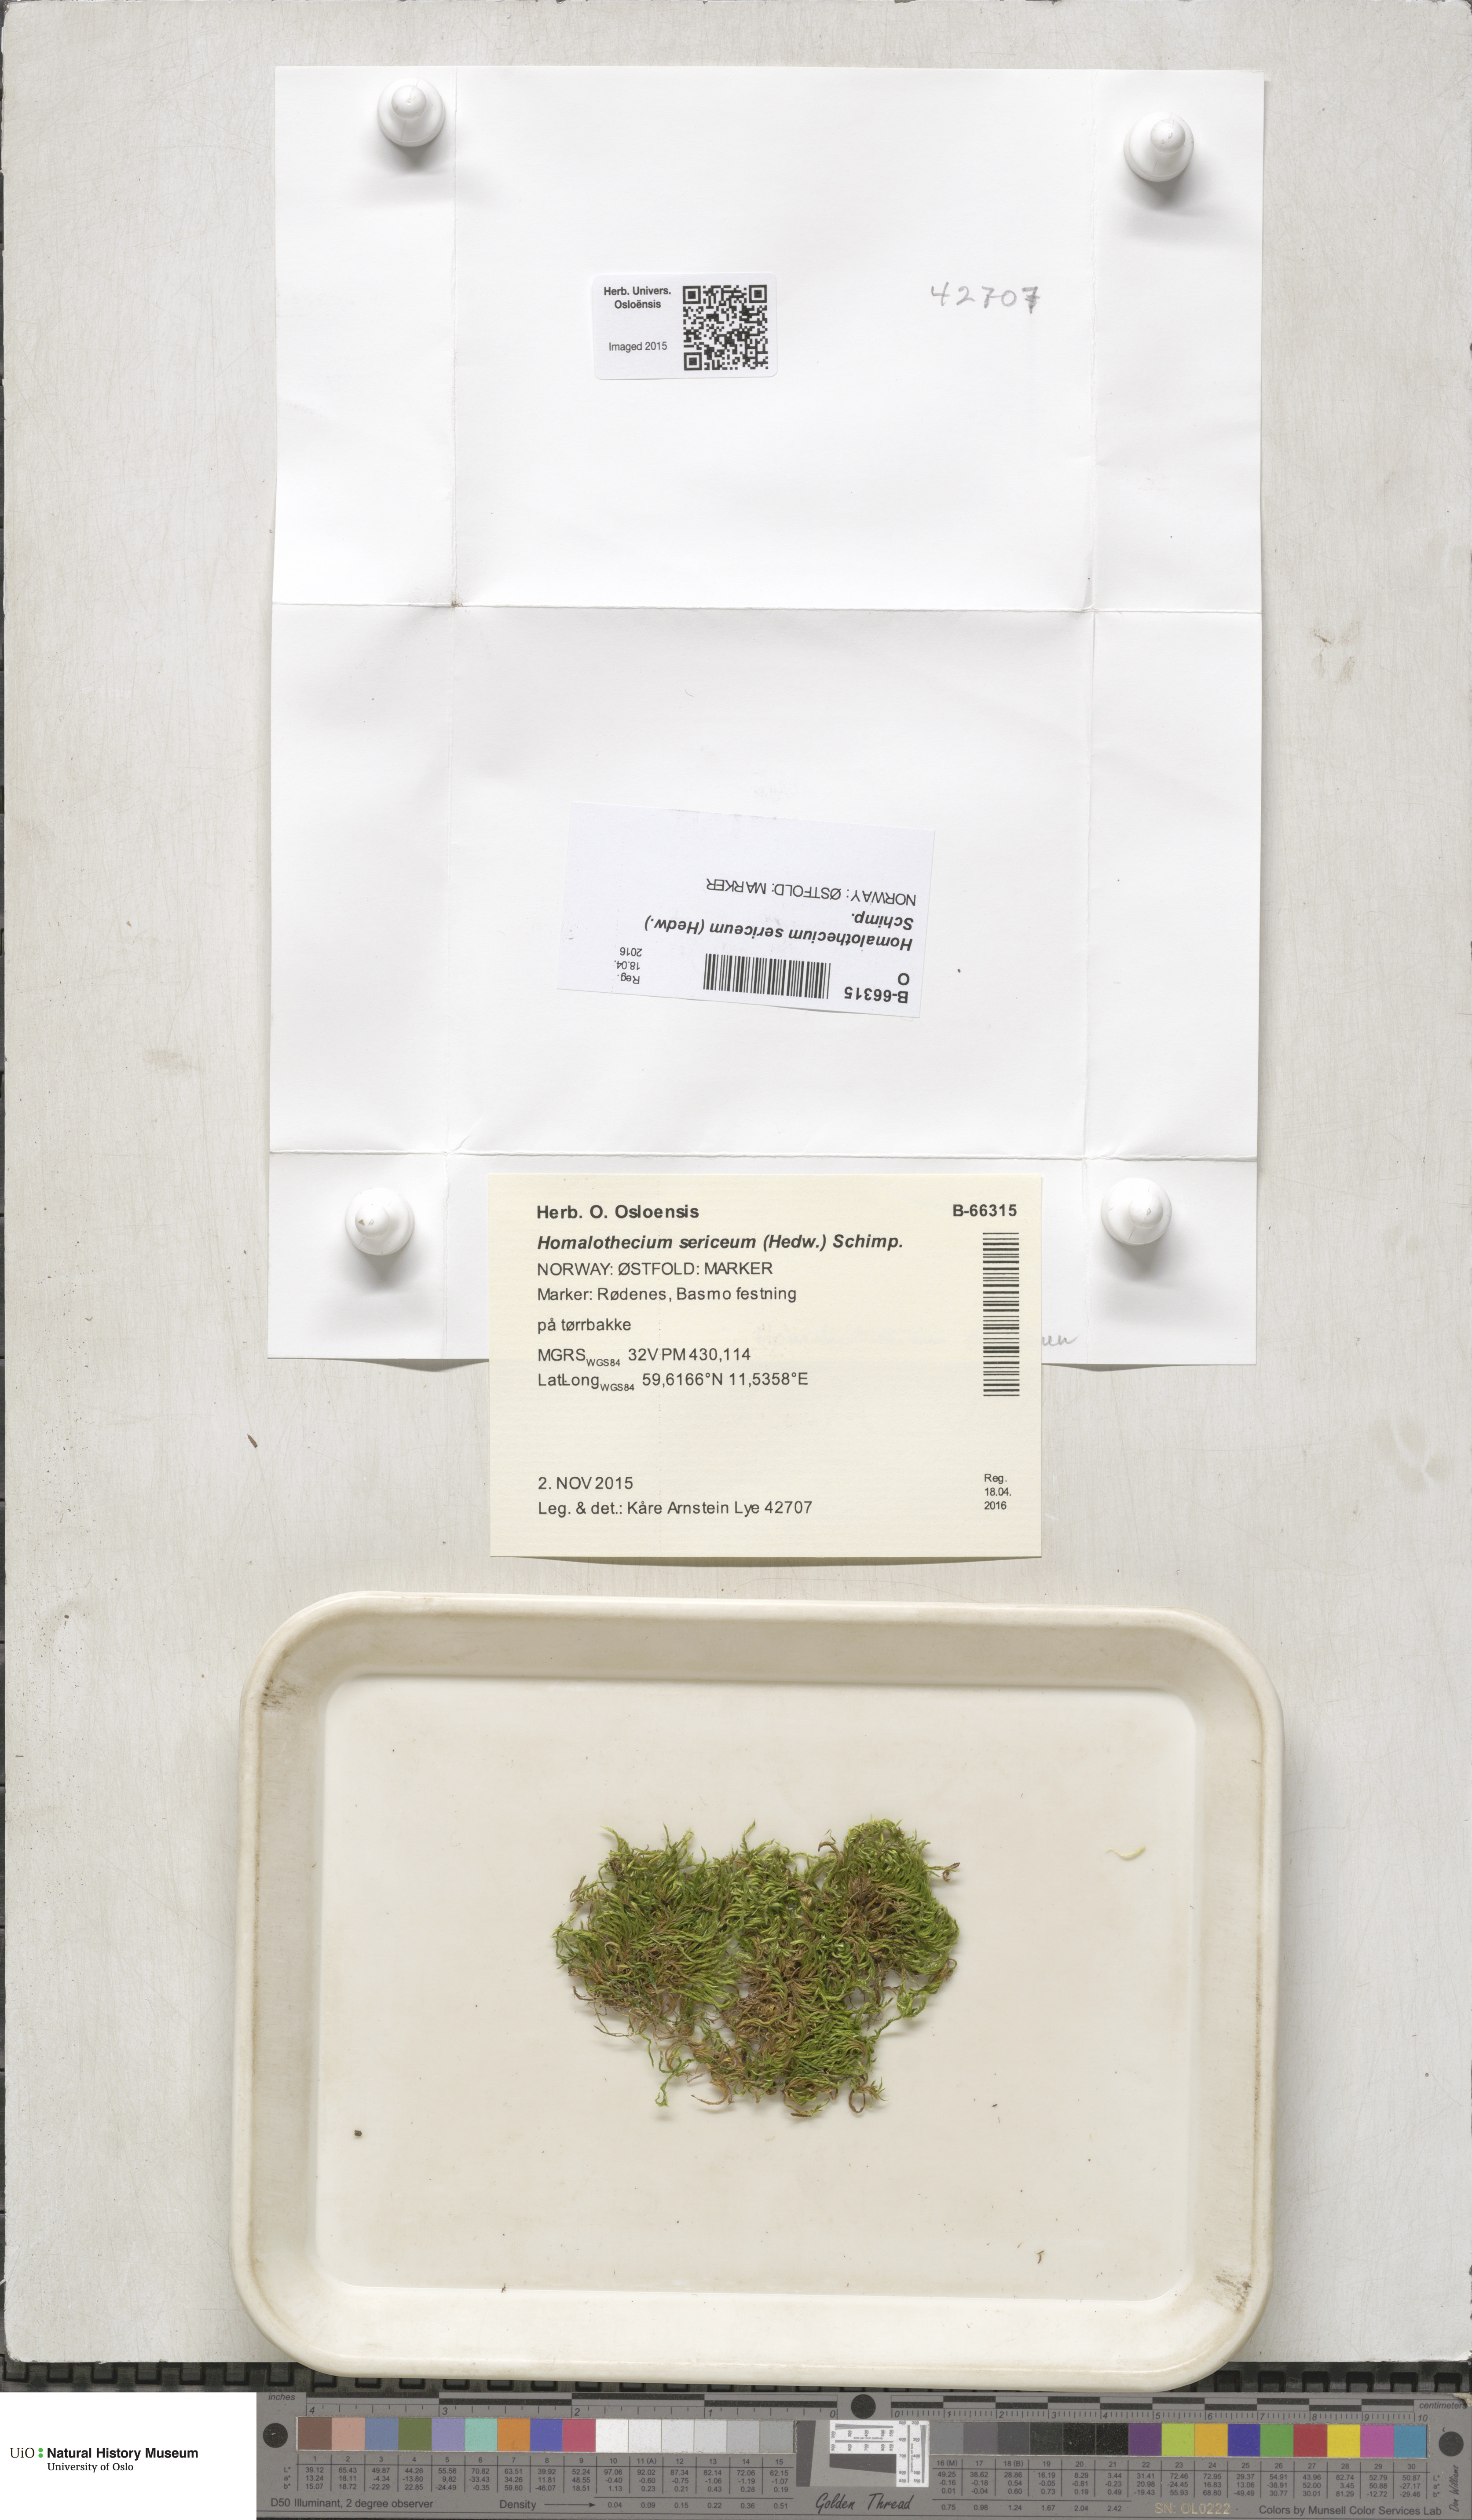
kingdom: Plantae
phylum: Bryophyta
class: Bryopsida
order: Hypnales
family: Brachytheciaceae
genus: Homalothecium
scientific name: Homalothecium sericeum
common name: Silky wall feather-moss
